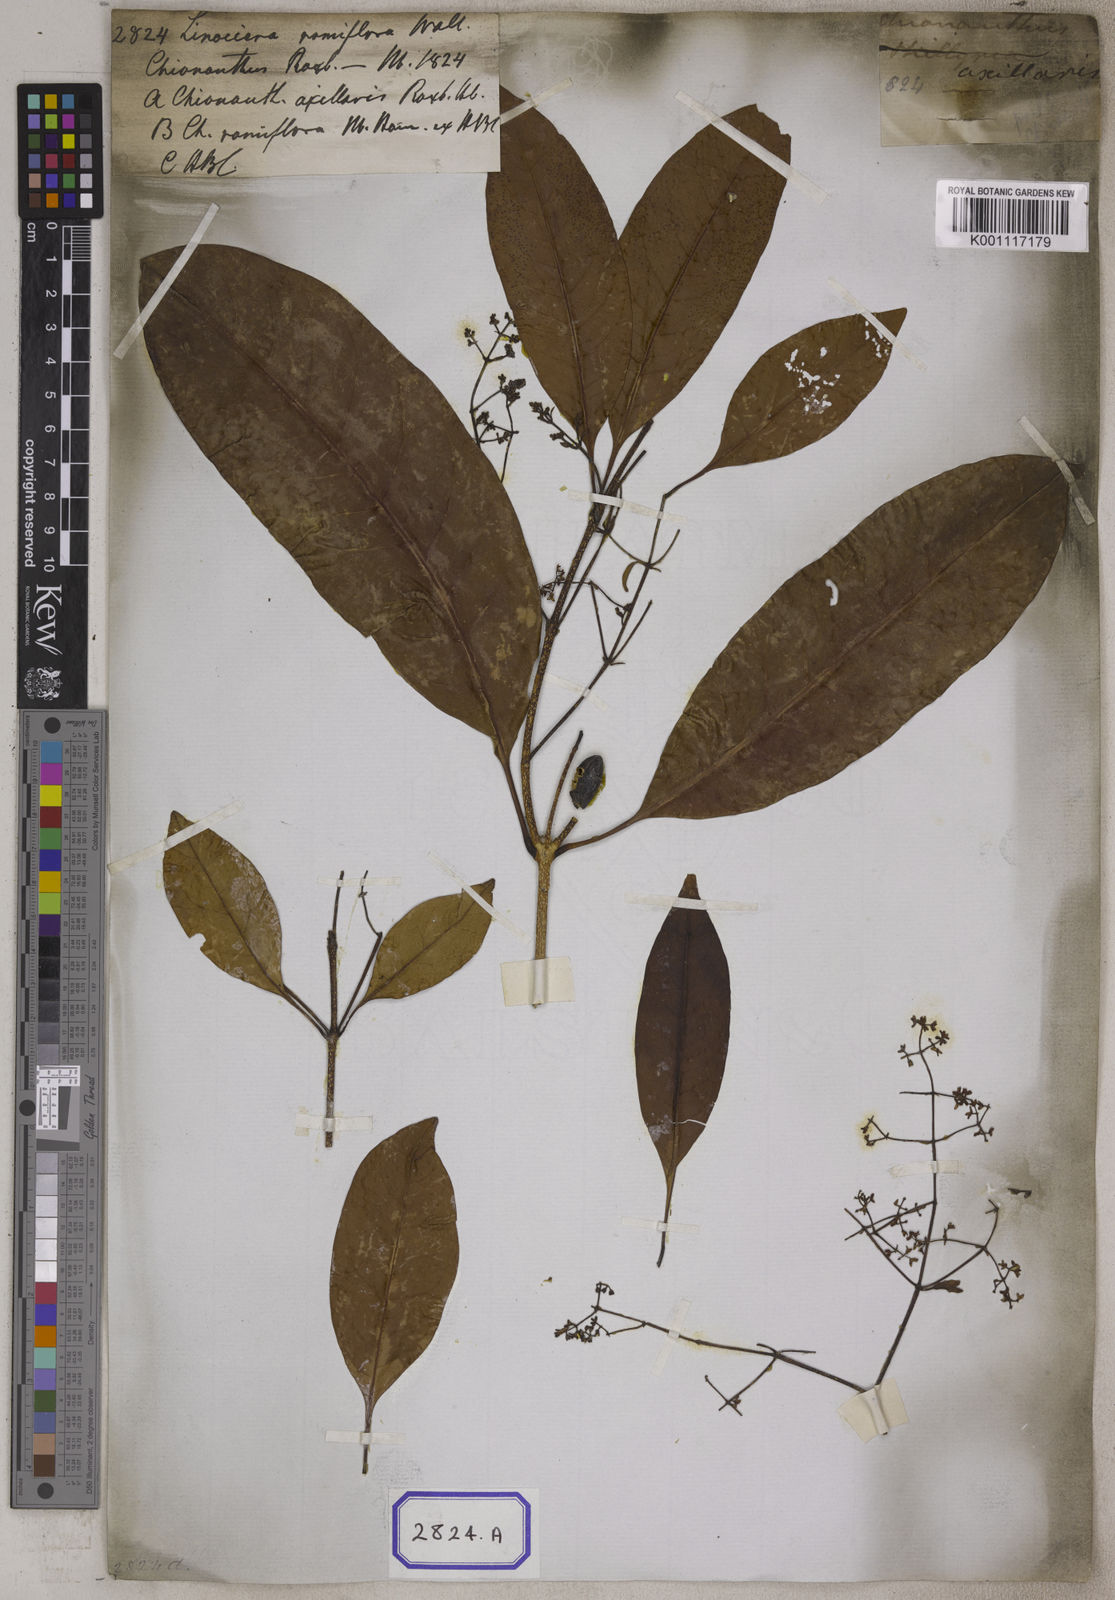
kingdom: Plantae
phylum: Tracheophyta
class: Magnoliopsida
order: Lamiales
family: Oleaceae
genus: Chionanthus
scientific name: Chionanthus ramiflorus
